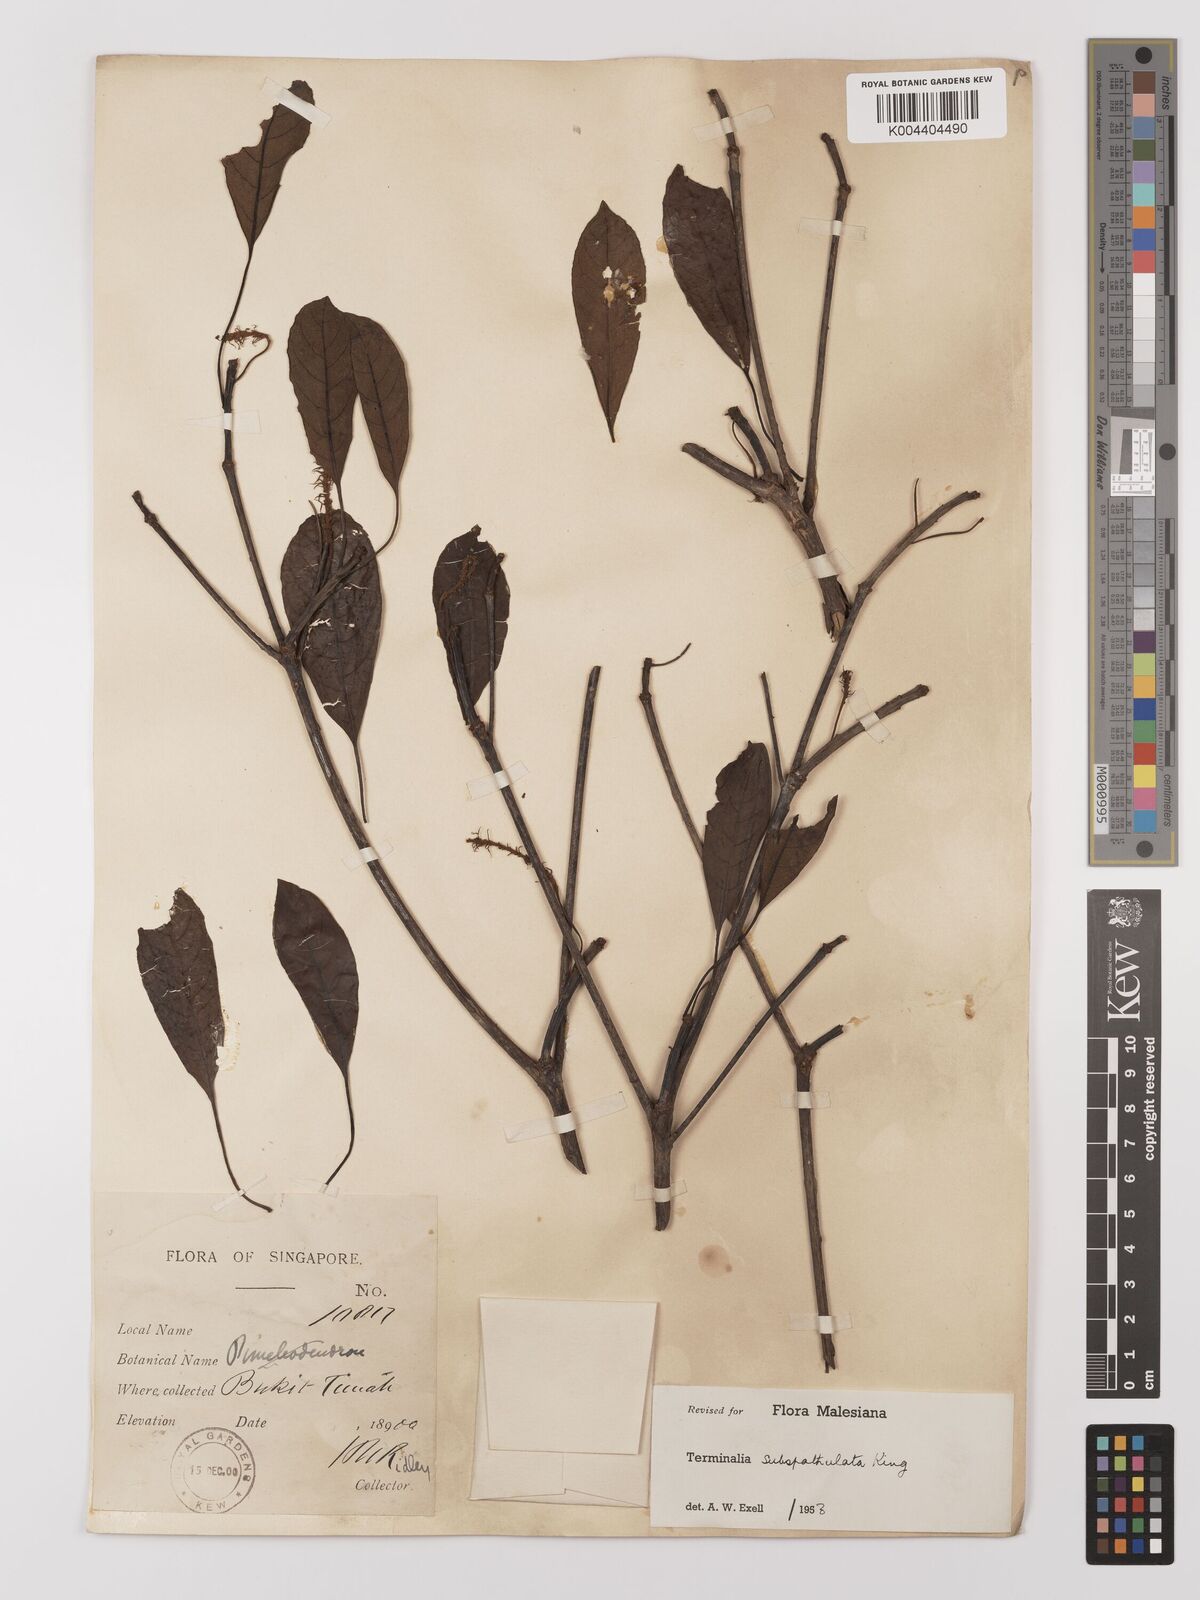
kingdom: Plantae
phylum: Tracheophyta
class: Magnoliopsida
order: Myrtales
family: Combretaceae
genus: Terminalia
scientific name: Terminalia subspathulata
